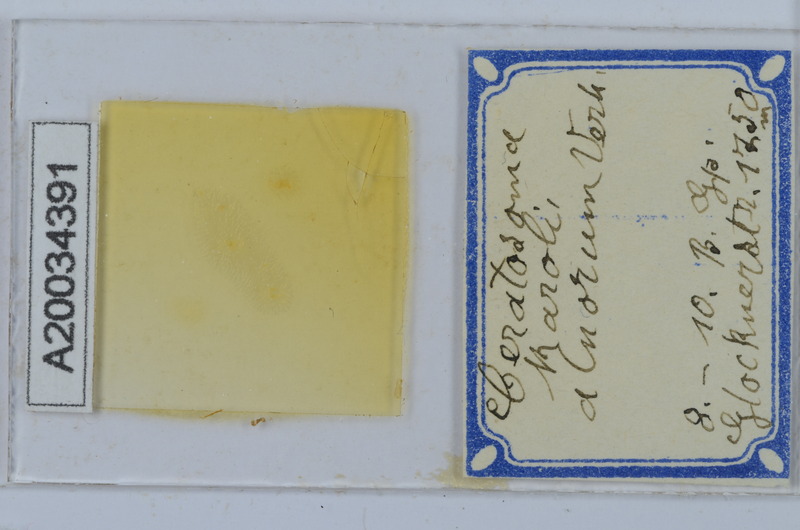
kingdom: Animalia
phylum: Arthropoda
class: Diplopoda
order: Chordeumatida
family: Craspedosomatidae
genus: Ochogona
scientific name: Ochogona caroli
